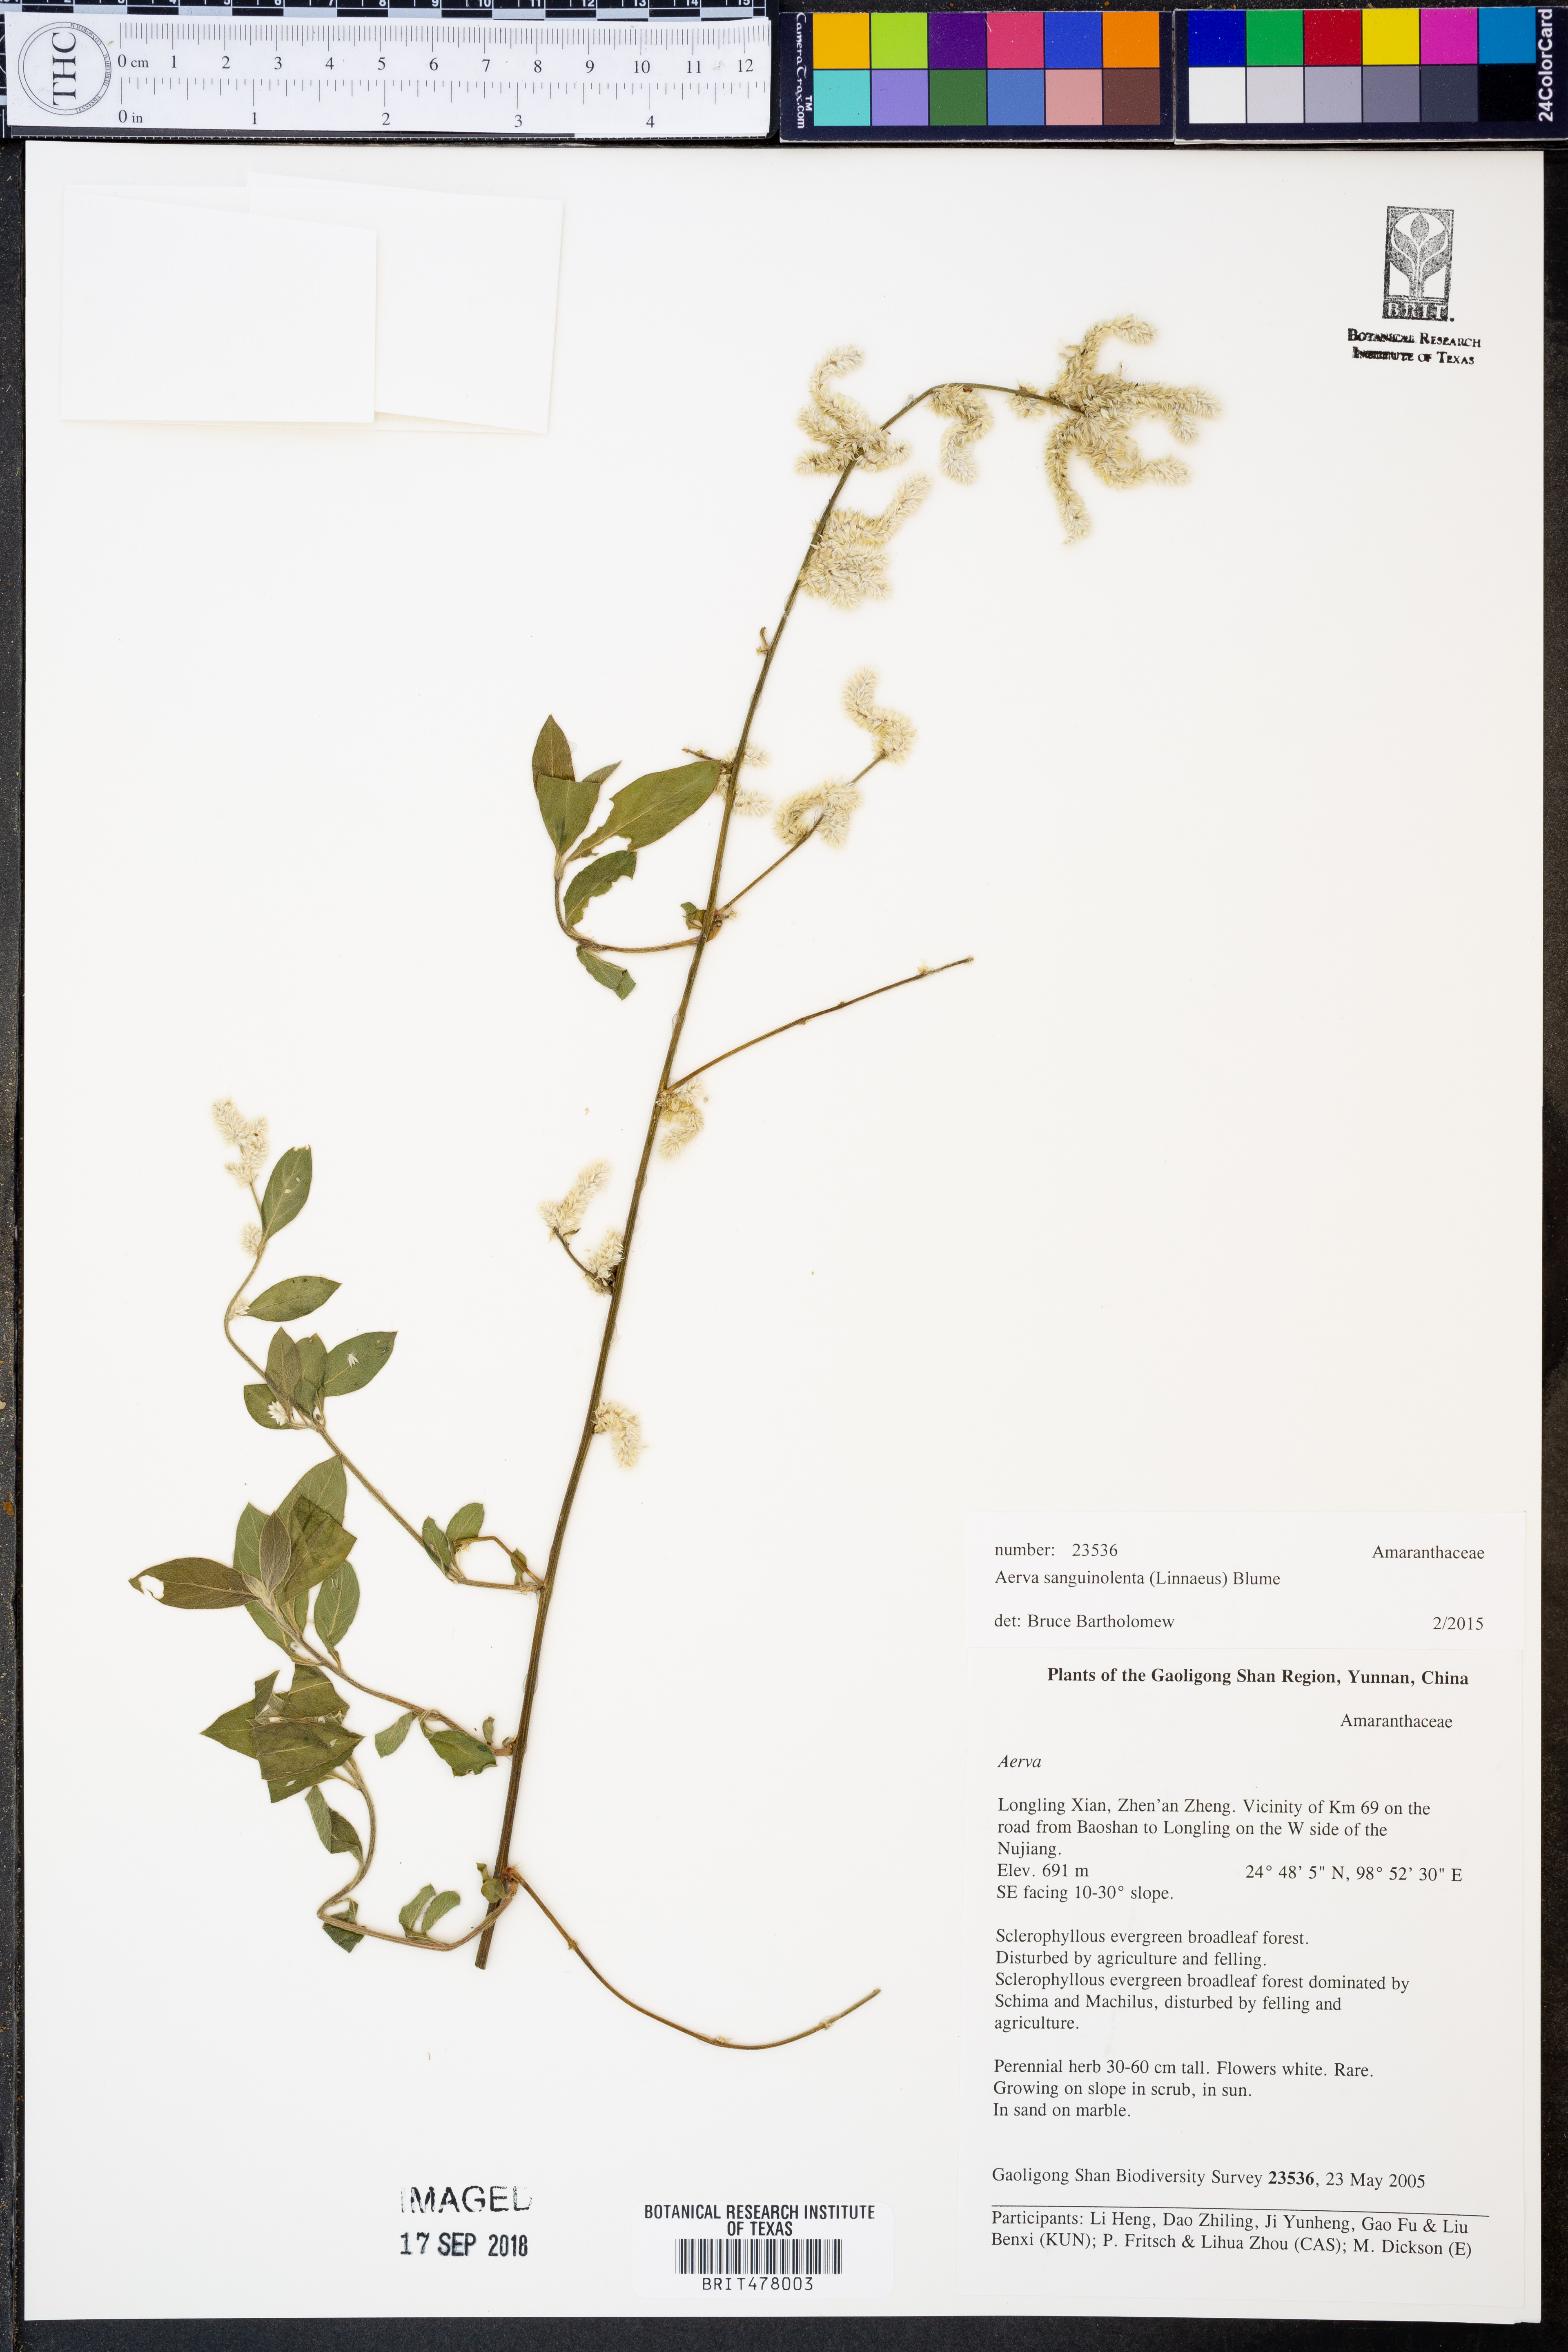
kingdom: Plantae
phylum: Tracheophyta
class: Magnoliopsida
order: Caryophyllales
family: Amaranthaceae
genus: Ouret
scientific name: Ouret sanguinolenta
